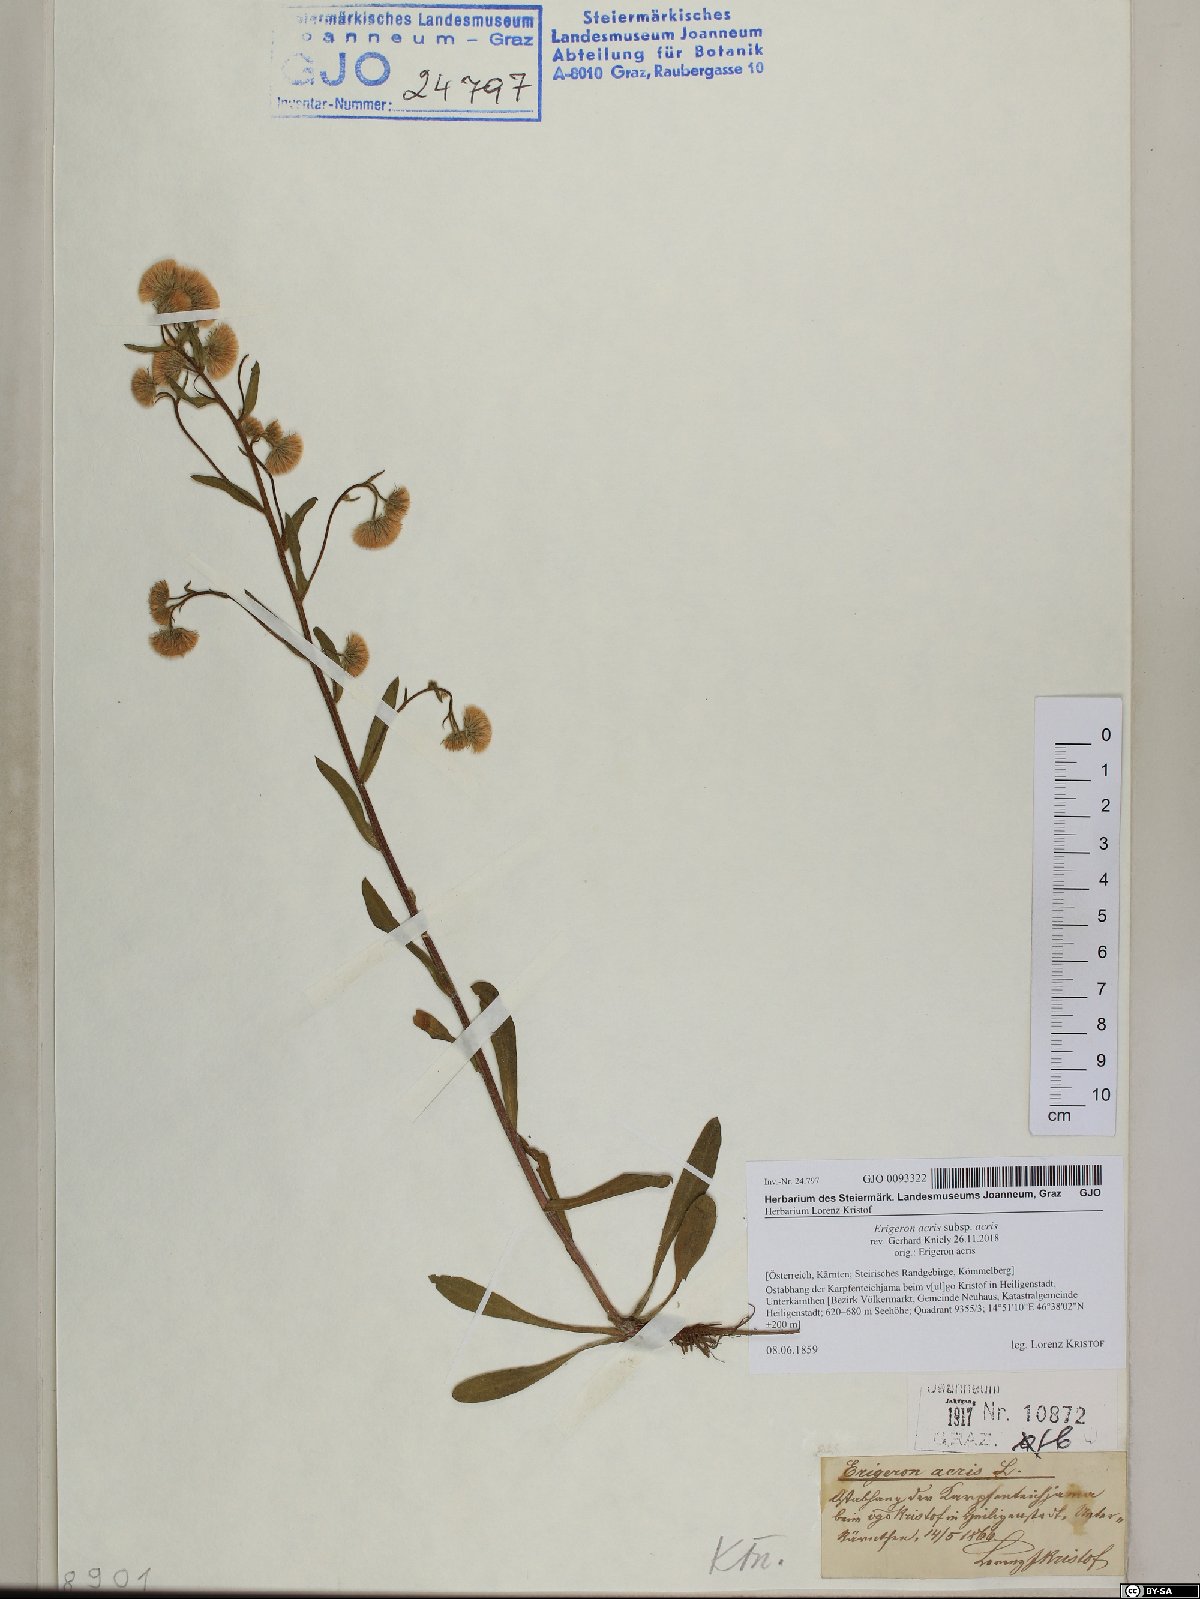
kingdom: Plantae
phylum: Tracheophyta
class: Magnoliopsida
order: Asterales
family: Asteraceae
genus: Erigeron
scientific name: Erigeron acris
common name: Blue fleabane
